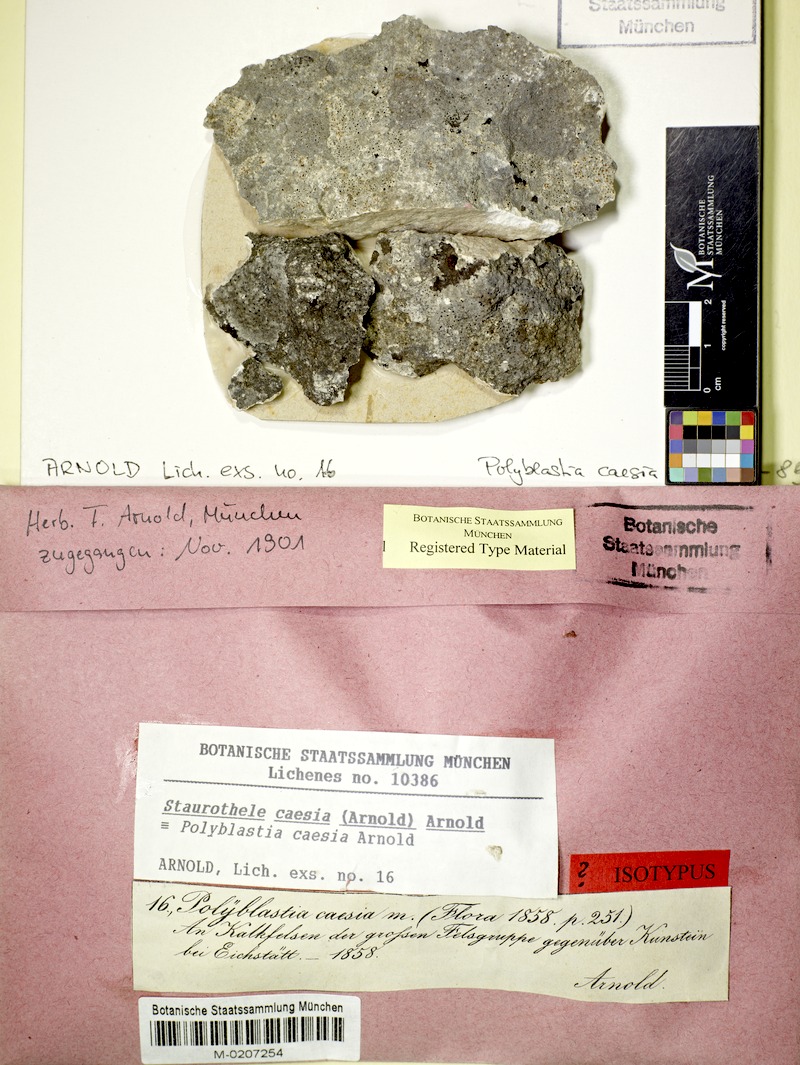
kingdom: Fungi
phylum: Ascomycota
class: Eurotiomycetes
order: Verrucariales
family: Verrucariaceae
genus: Staurothele
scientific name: Staurothele caesia
